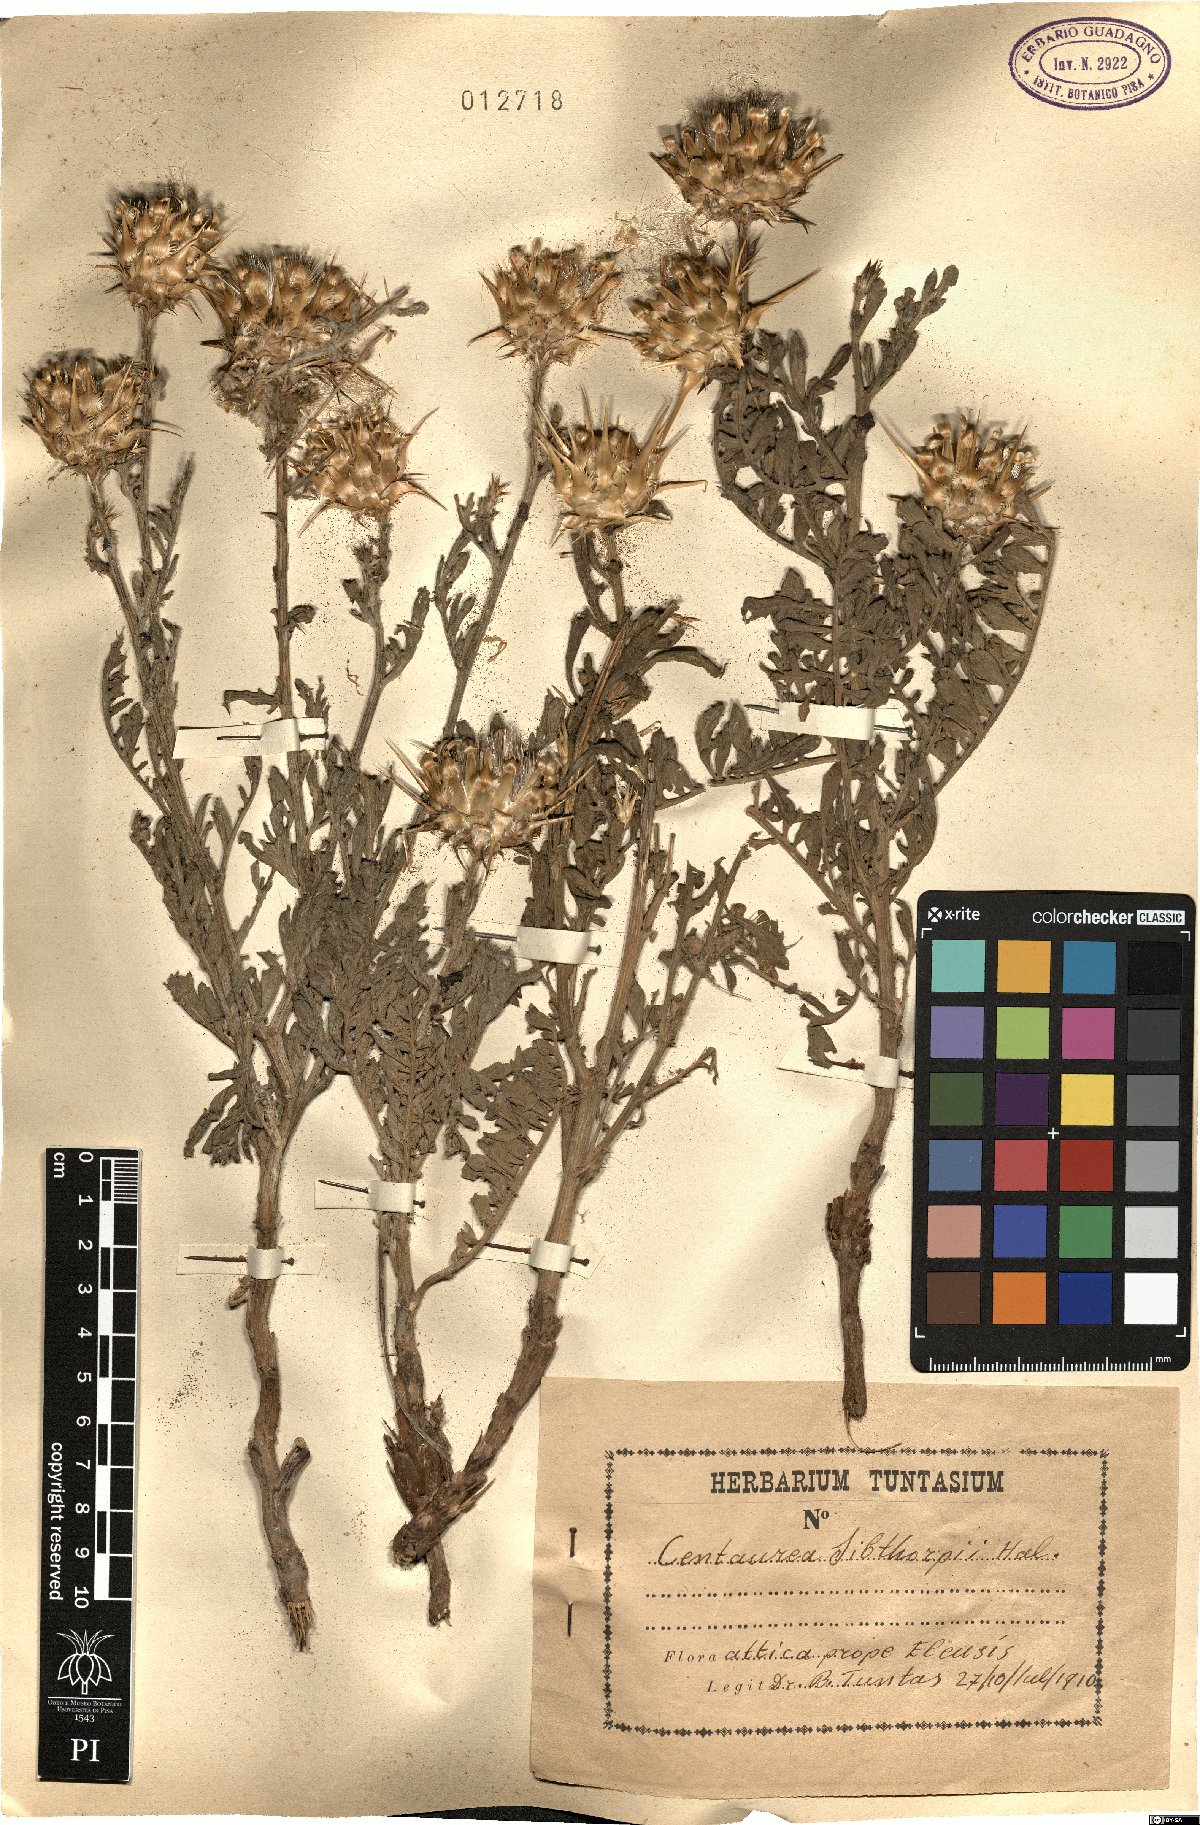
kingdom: Plantae
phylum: Tracheophyta
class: Magnoliopsida
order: Asterales
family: Asteraceae
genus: Centaurea
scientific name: Centaurea achaia
